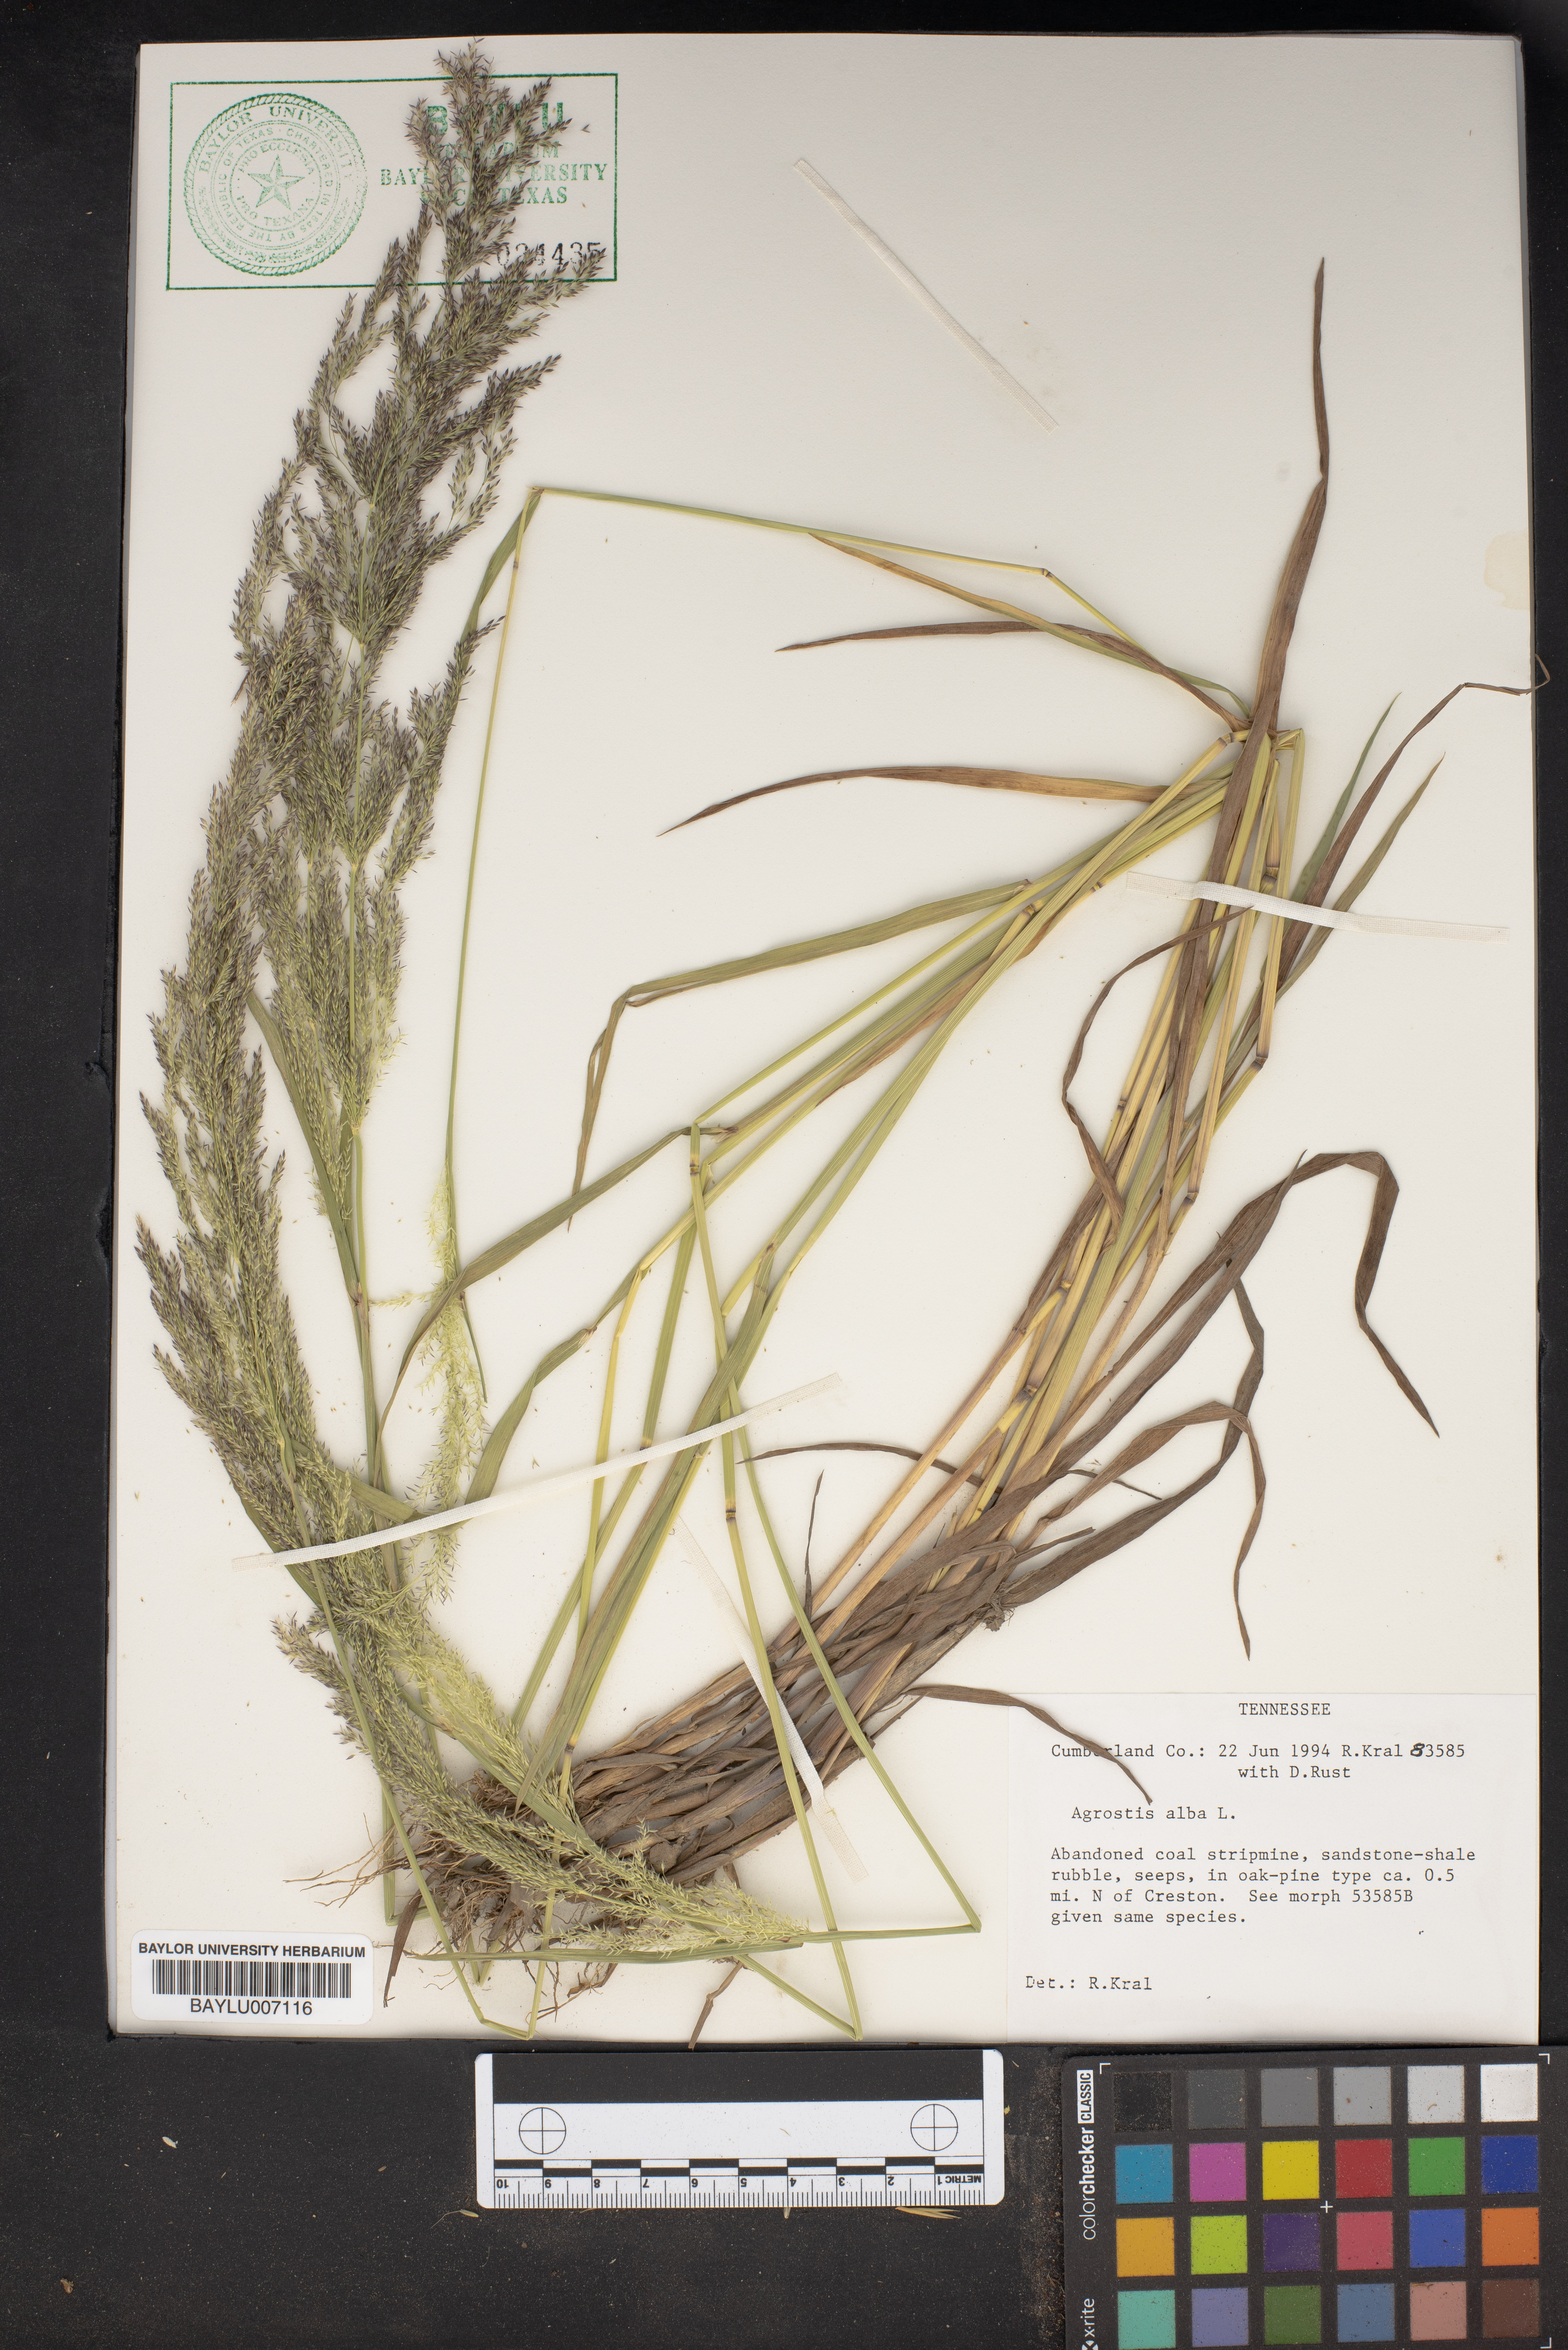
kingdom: Plantae
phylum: Tracheophyta
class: Liliopsida
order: Poales
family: Poaceae
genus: Agrostis
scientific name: Agrostis alba
